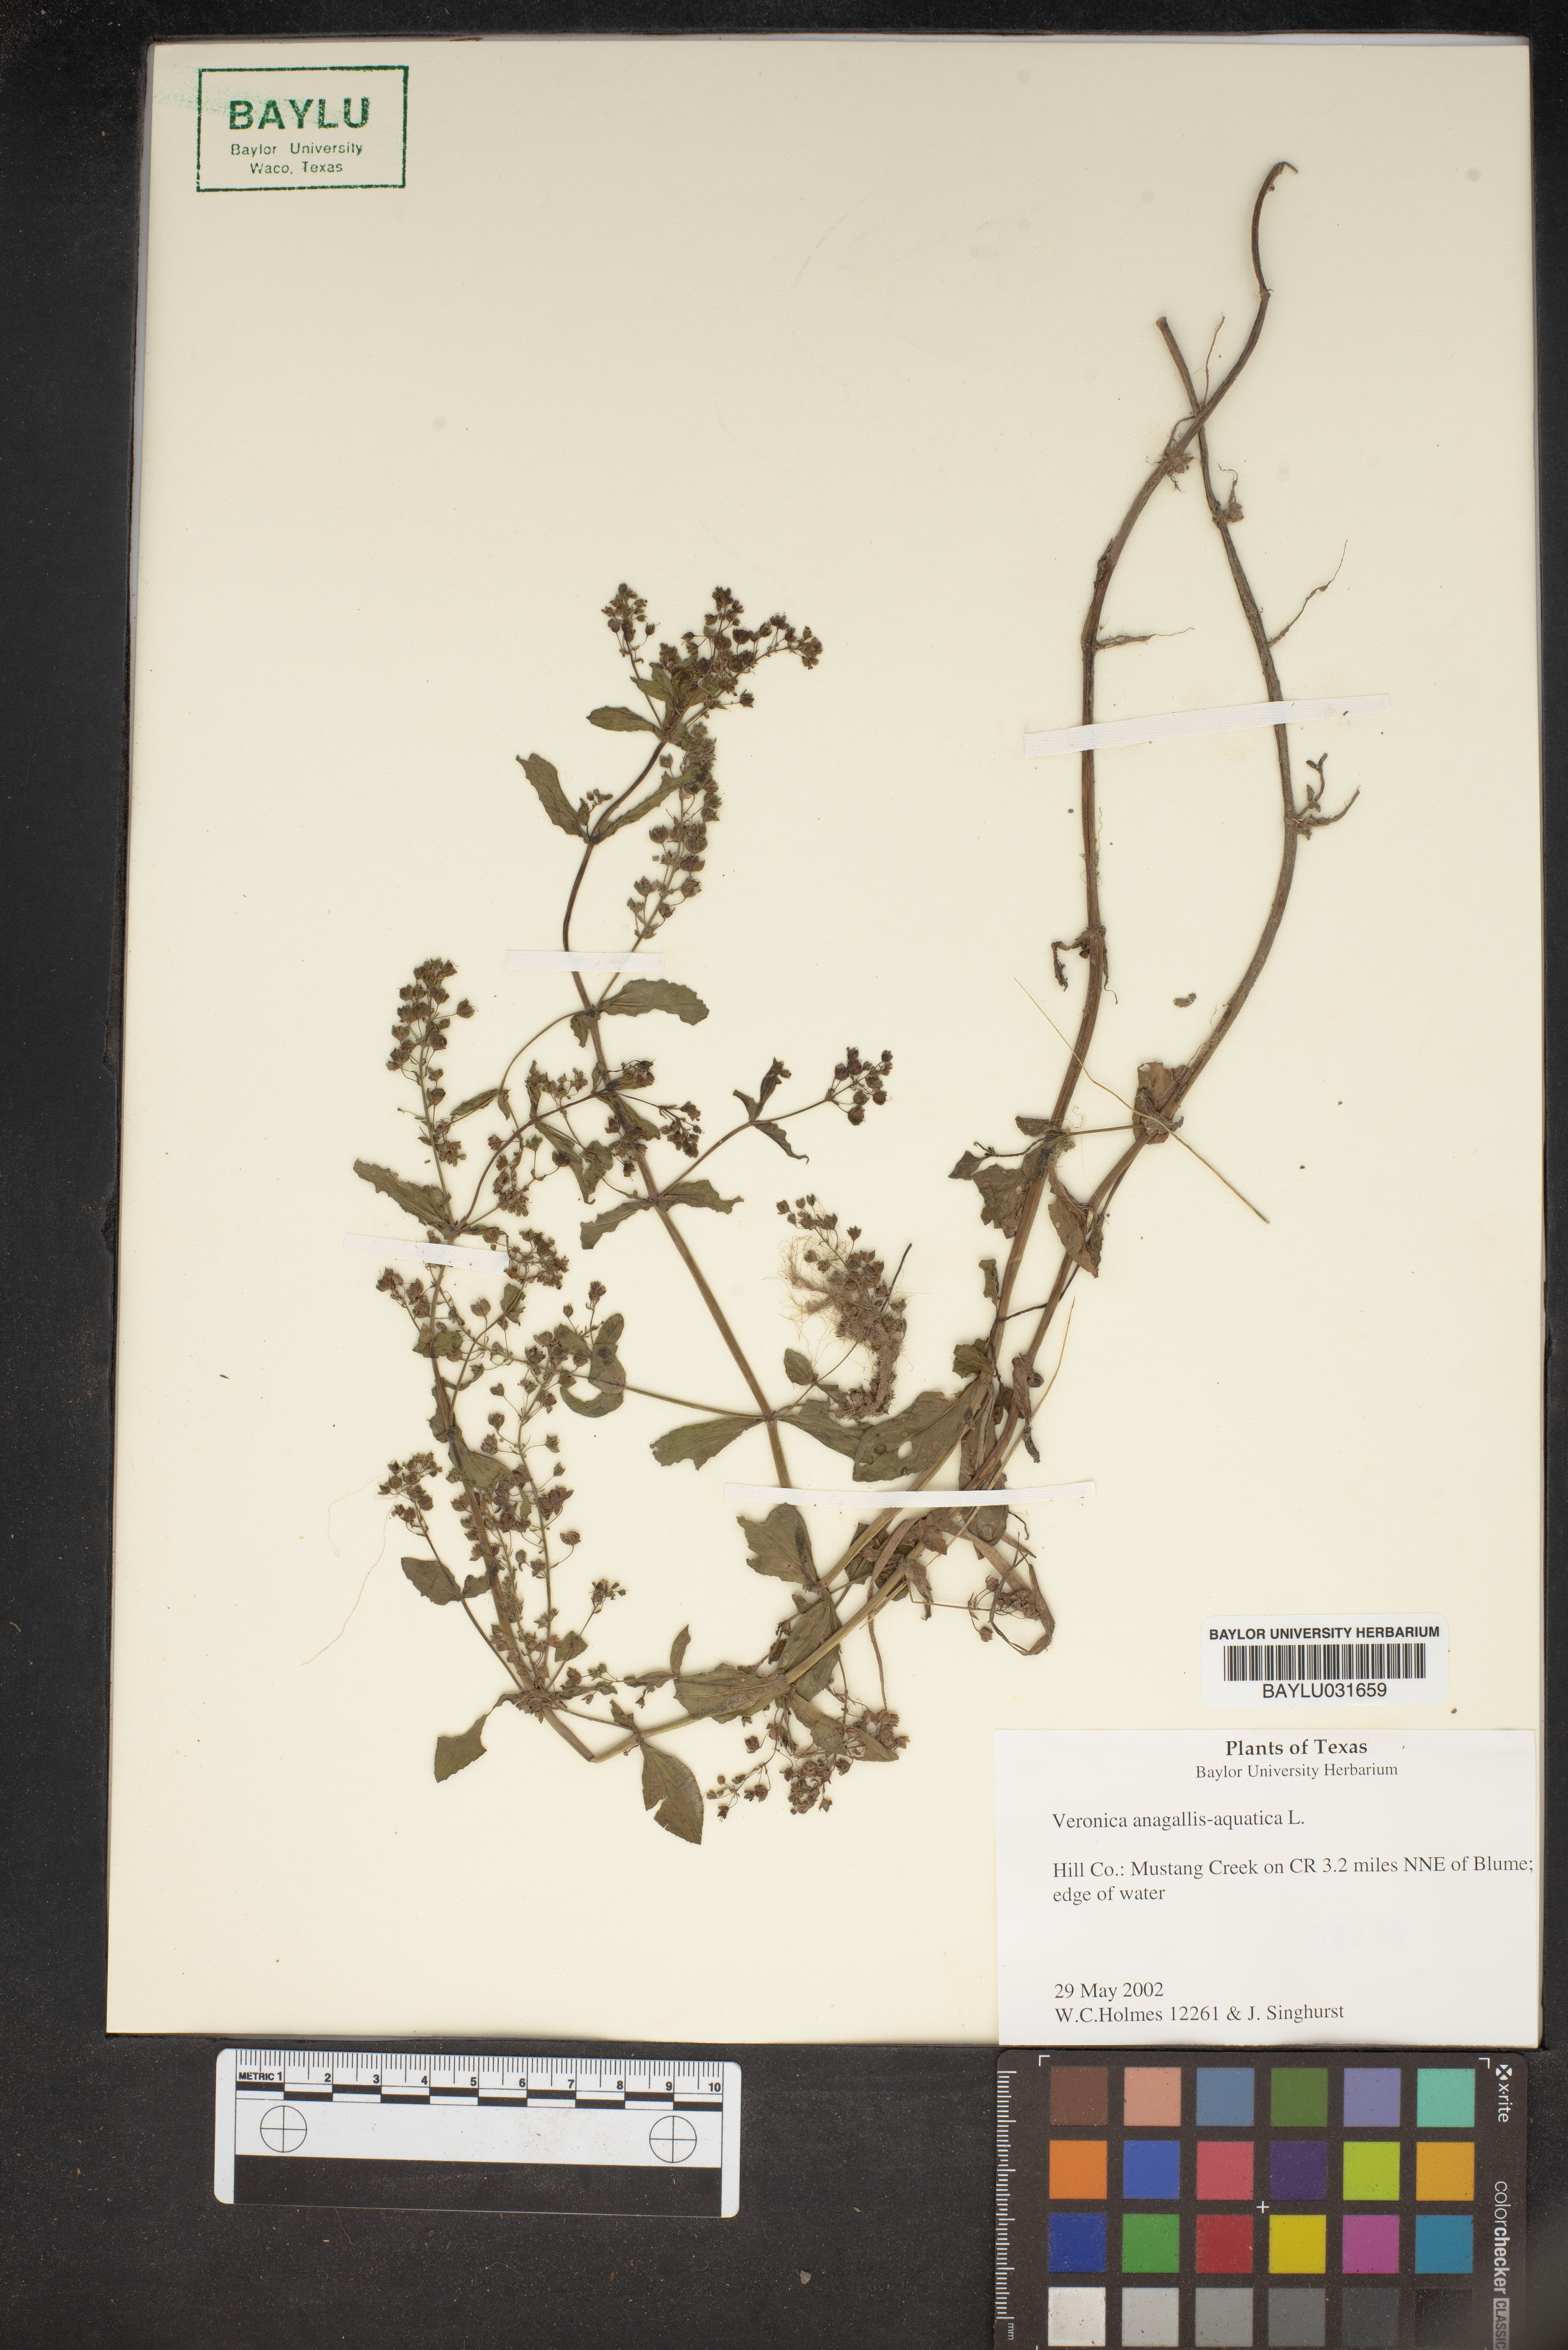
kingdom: Plantae
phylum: Tracheophyta
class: Magnoliopsida
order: Lamiales
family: Plantaginaceae
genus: Veronica
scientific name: Veronica anagallis-aquatica
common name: Water speedwell
